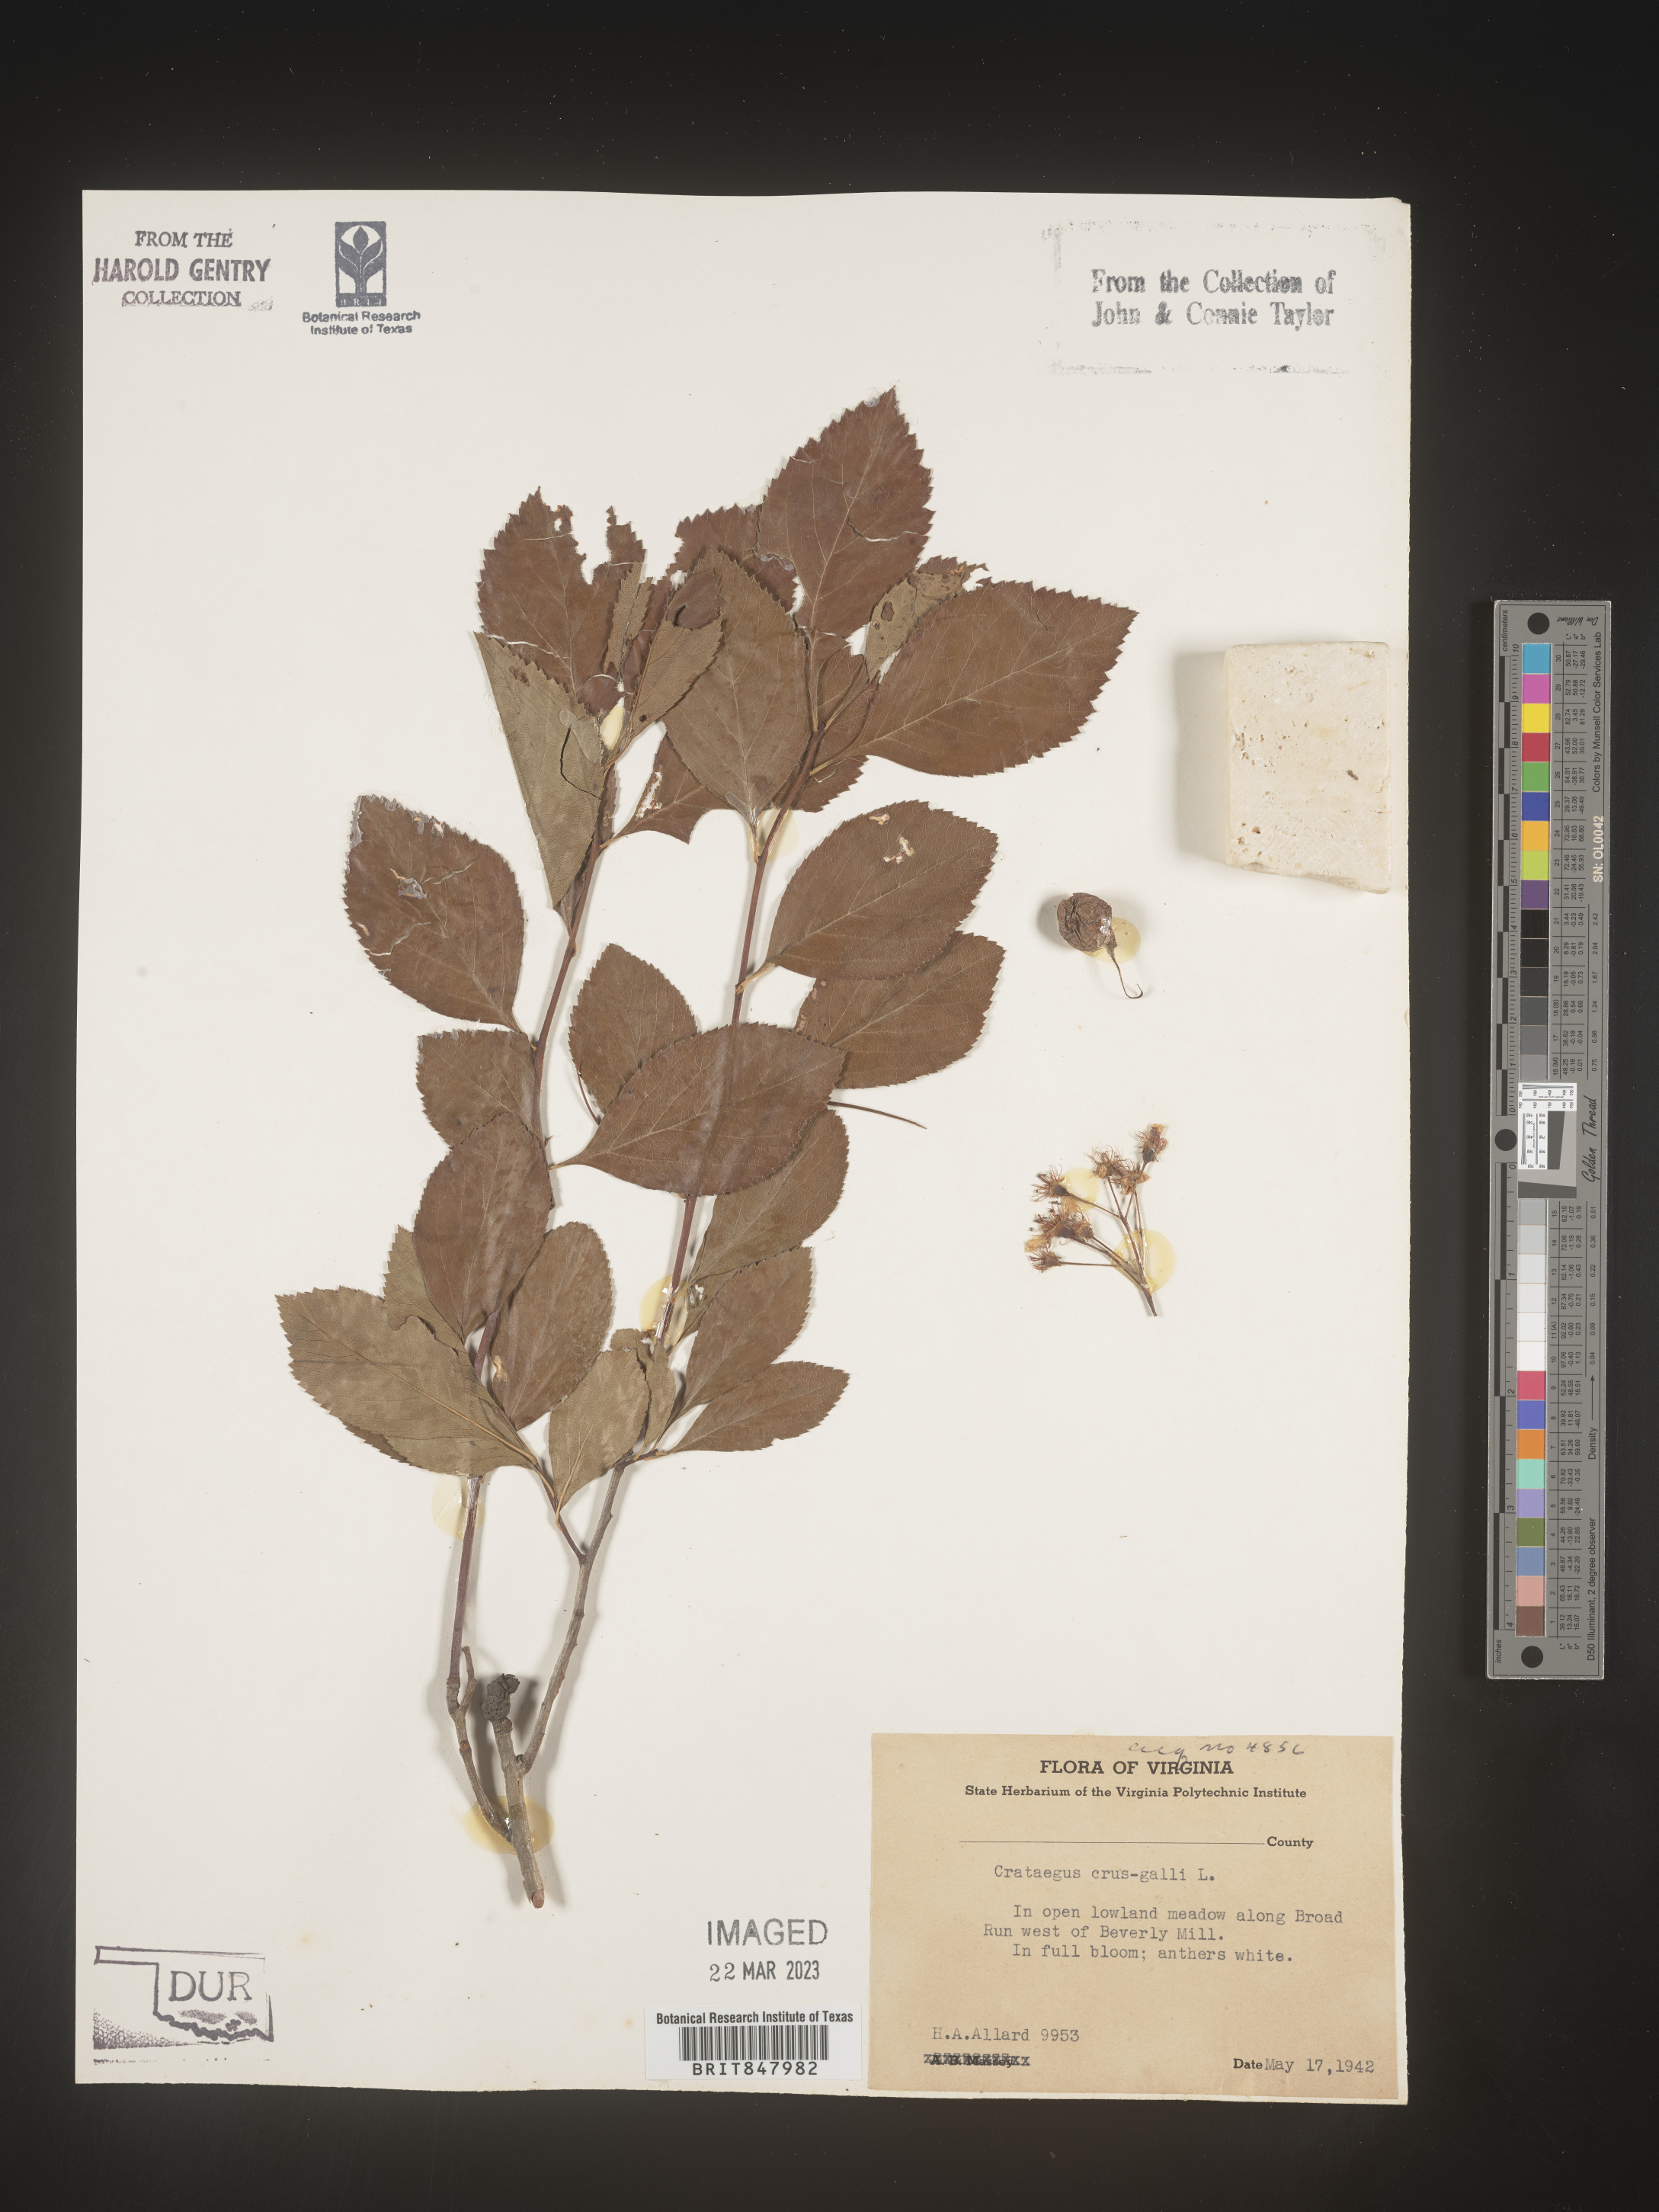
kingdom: Plantae
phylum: Tracheophyta
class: Magnoliopsida
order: Rosales
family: Rosaceae
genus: Crataegus
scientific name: Crataegus crus-galli
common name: Cockspurthorn
